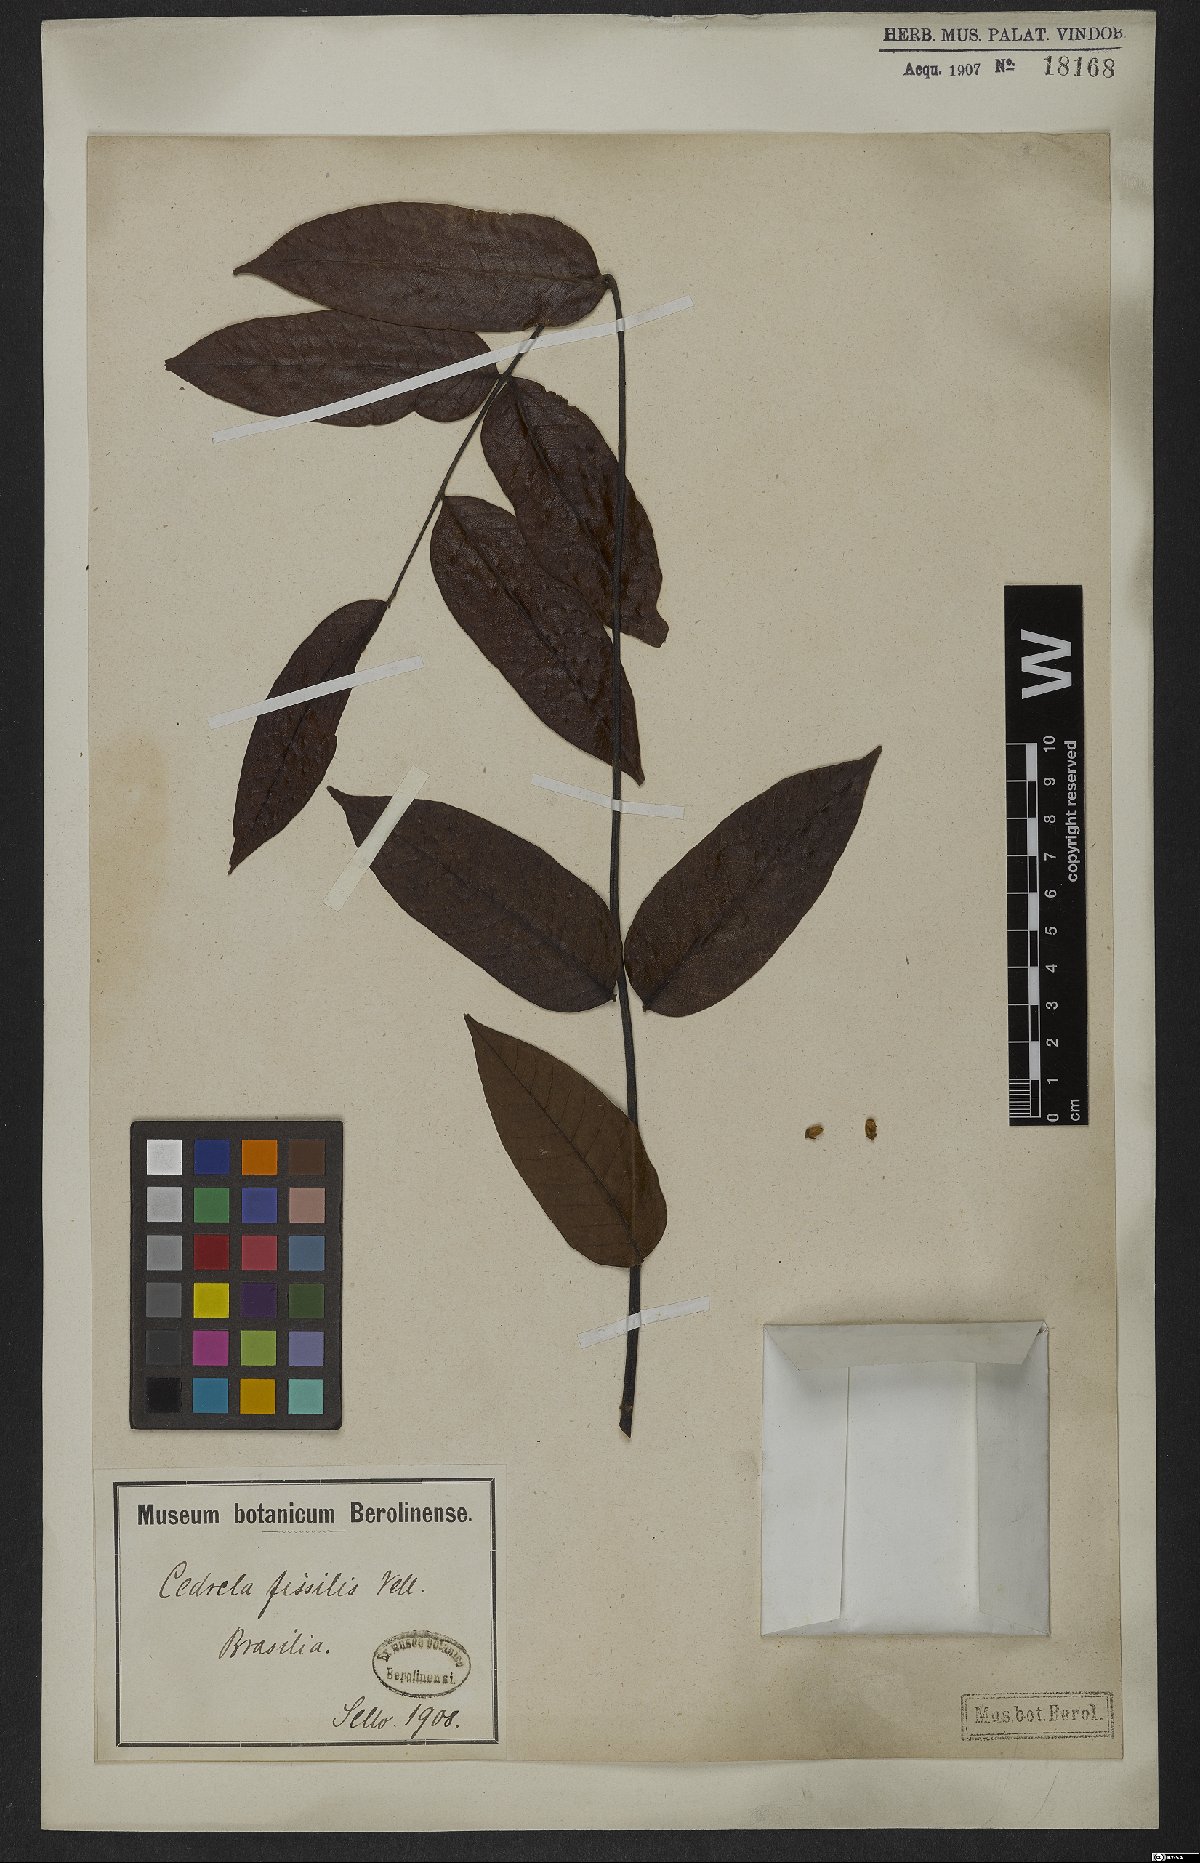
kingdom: Plantae
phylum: Tracheophyta
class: Magnoliopsida
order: Sapindales
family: Meliaceae
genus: Cedrela
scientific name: Cedrela fissilis
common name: Argentine cedar
